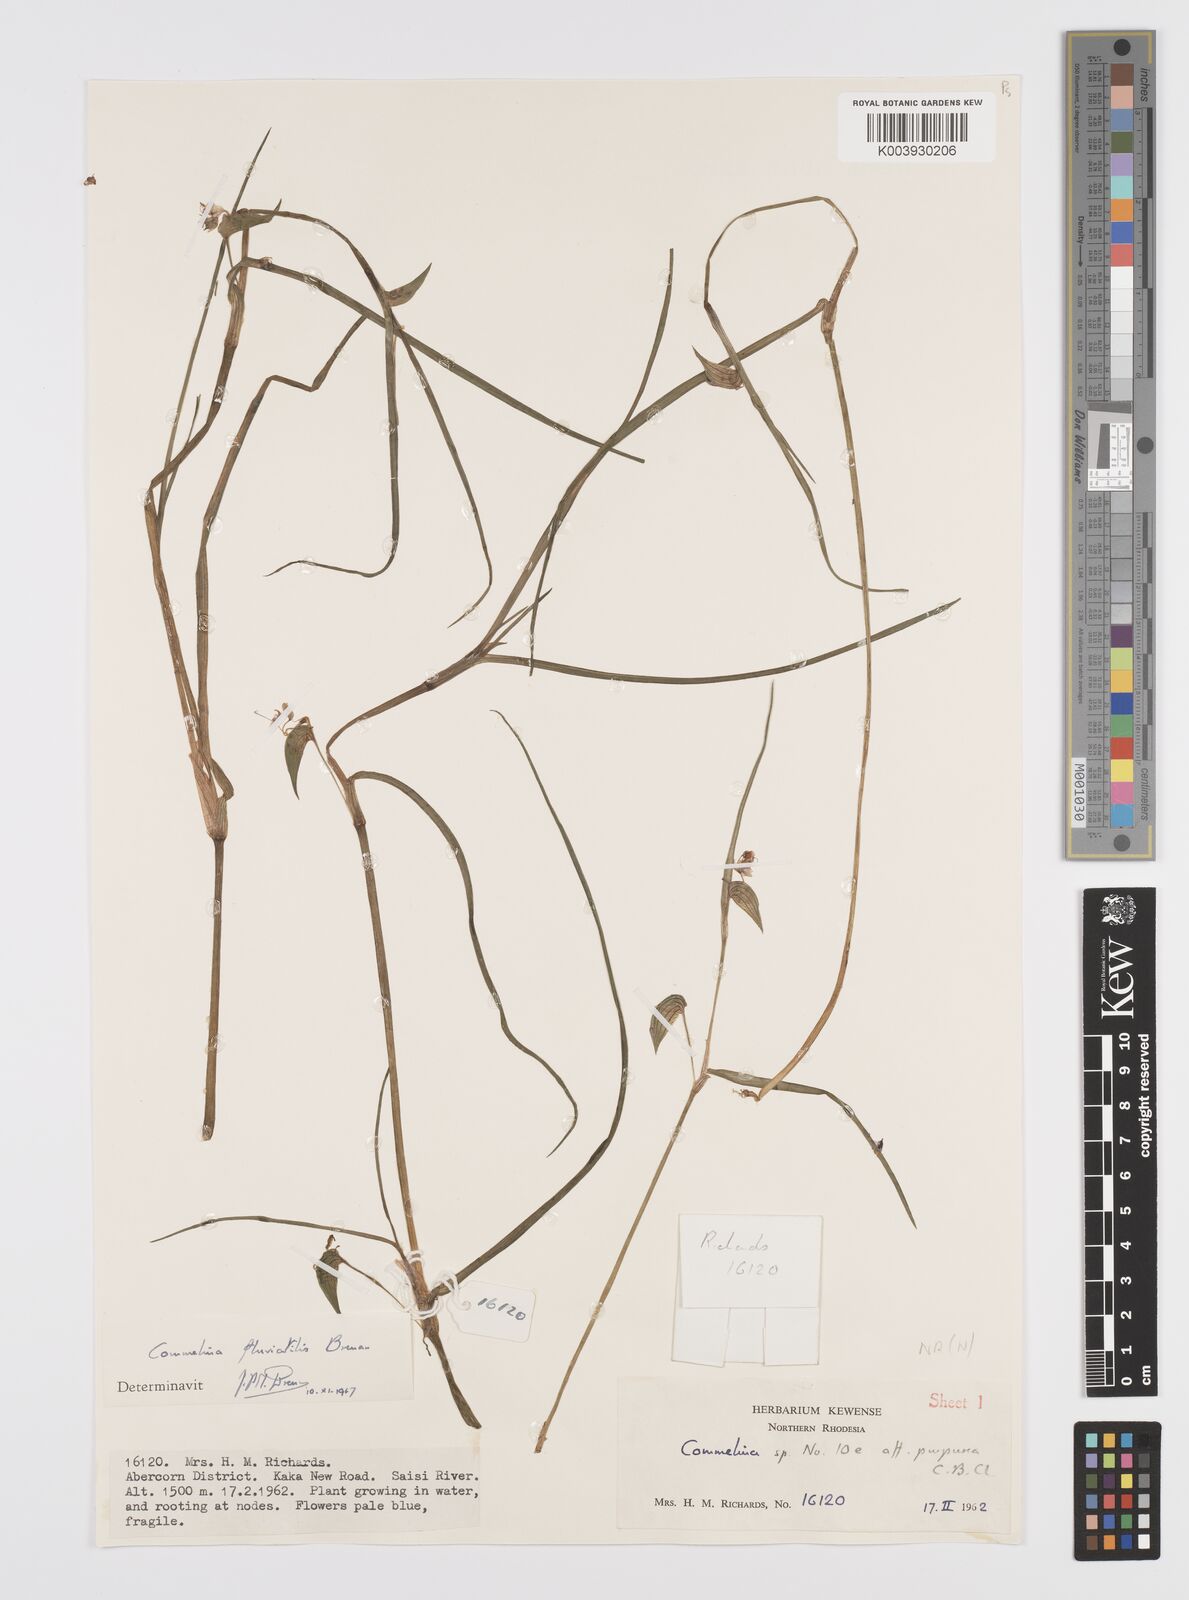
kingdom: Plantae
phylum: Tracheophyta
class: Liliopsida
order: Commelinales
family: Commelinaceae
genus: Commelina
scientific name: Commelina fluviatilis
